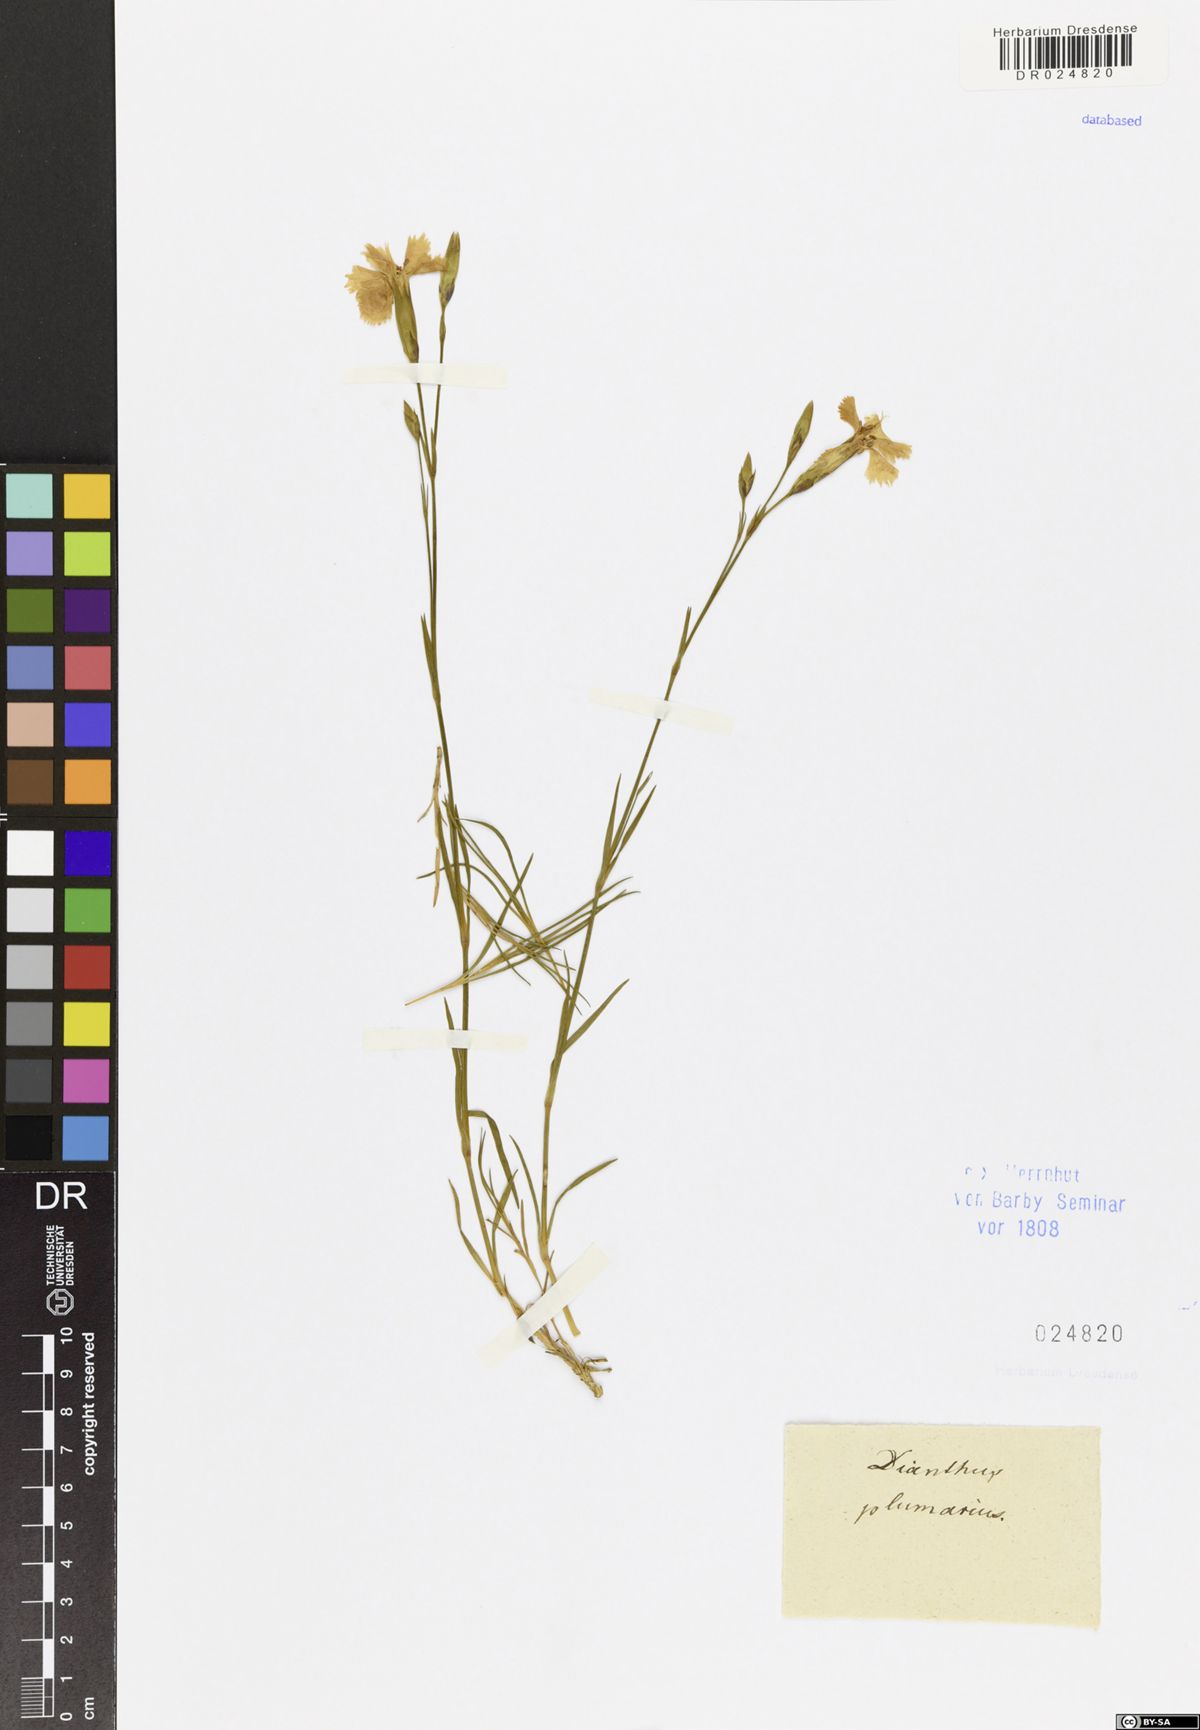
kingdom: Plantae
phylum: Tracheophyta
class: Magnoliopsida
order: Caryophyllales
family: Caryophyllaceae
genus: Dianthus
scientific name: Dianthus plumarius
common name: Pink
